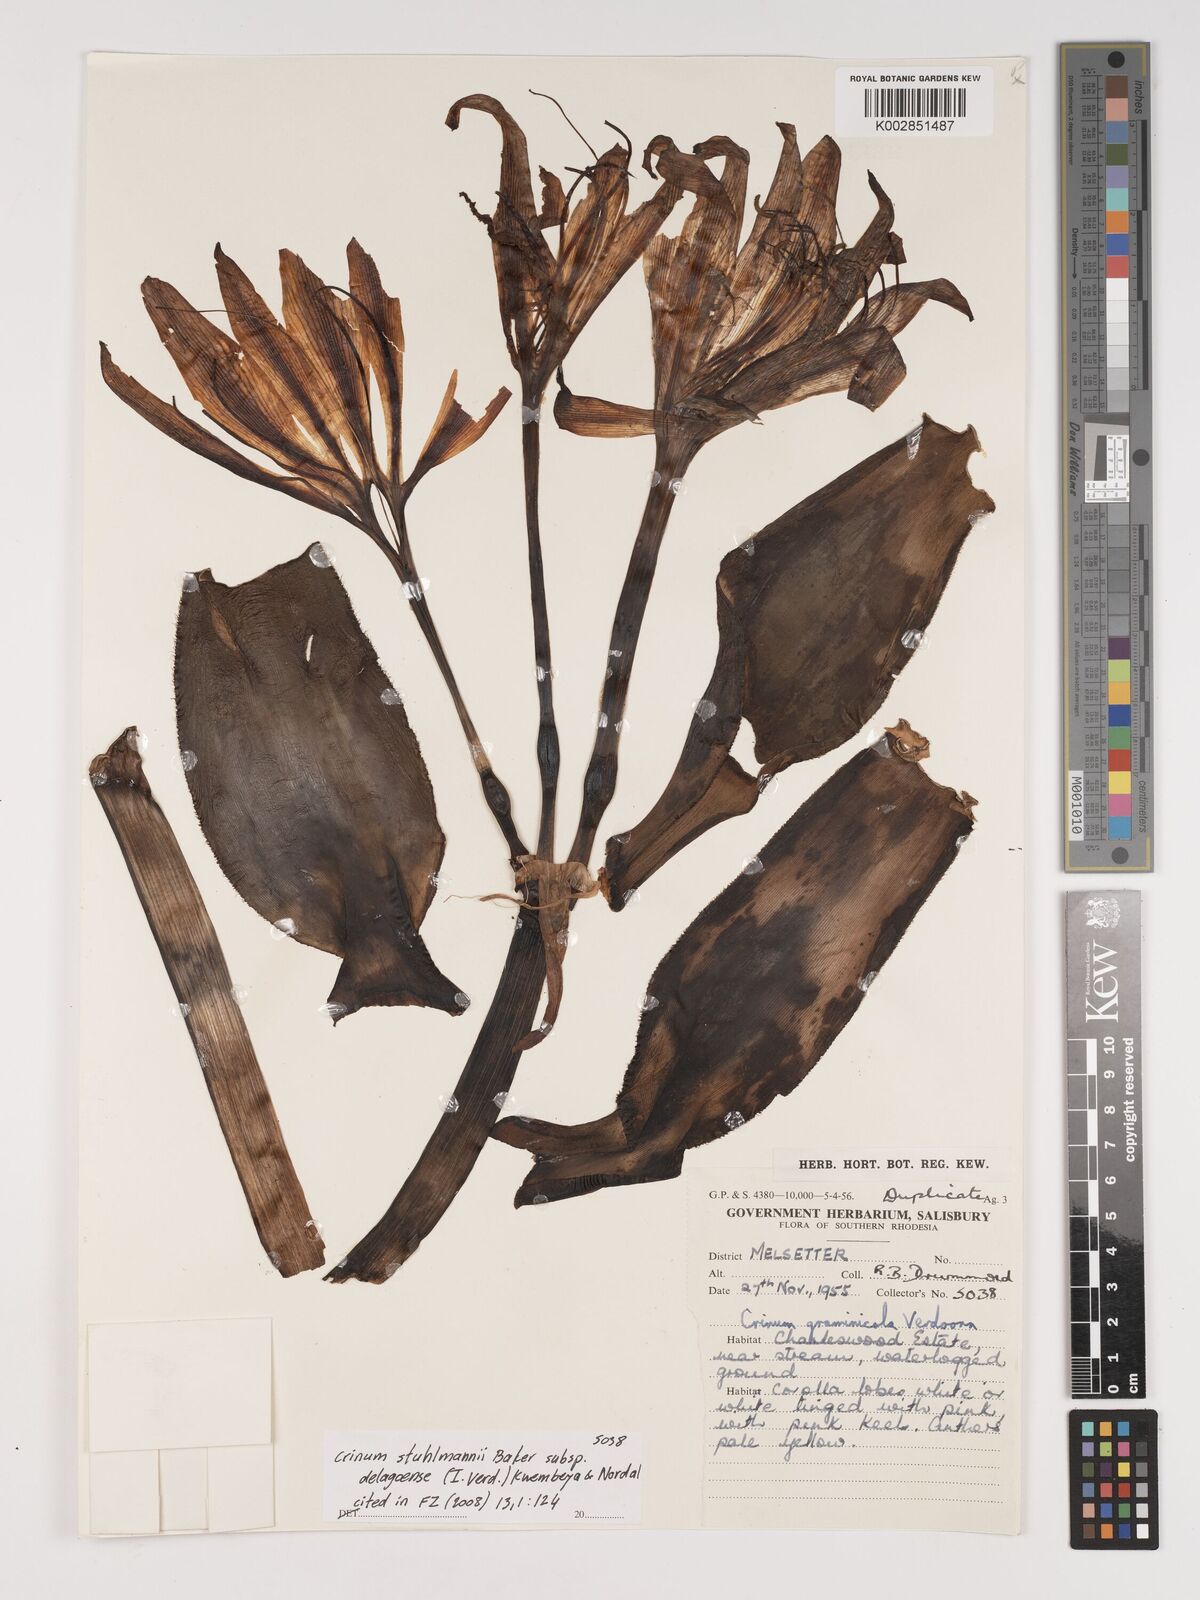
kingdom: Plantae
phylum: Tracheophyta
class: Liliopsida
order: Asparagales
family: Amaryllidaceae
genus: Crinum
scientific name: Crinum stuhlmannii
